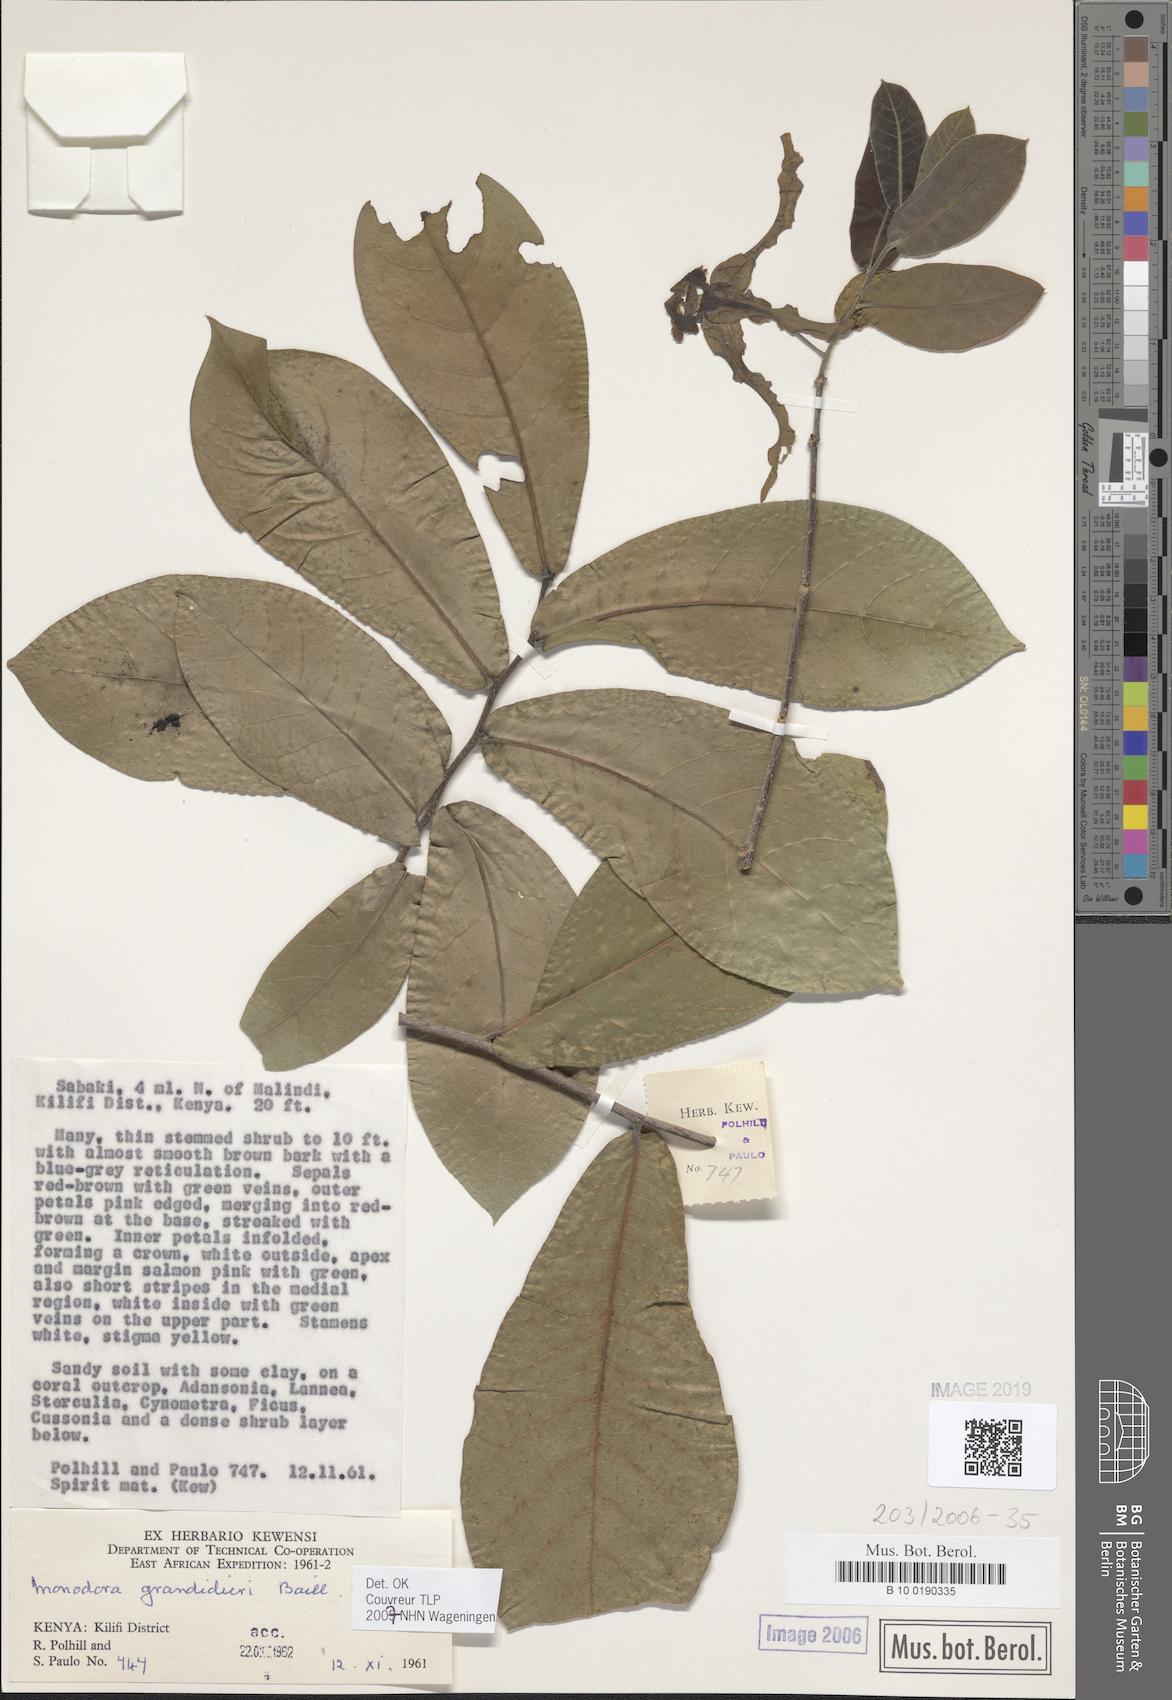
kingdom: Plantae
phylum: Tracheophyta
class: Magnoliopsida
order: Magnoliales
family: Annonaceae
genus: Monodora
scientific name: Monodora grandidieri
